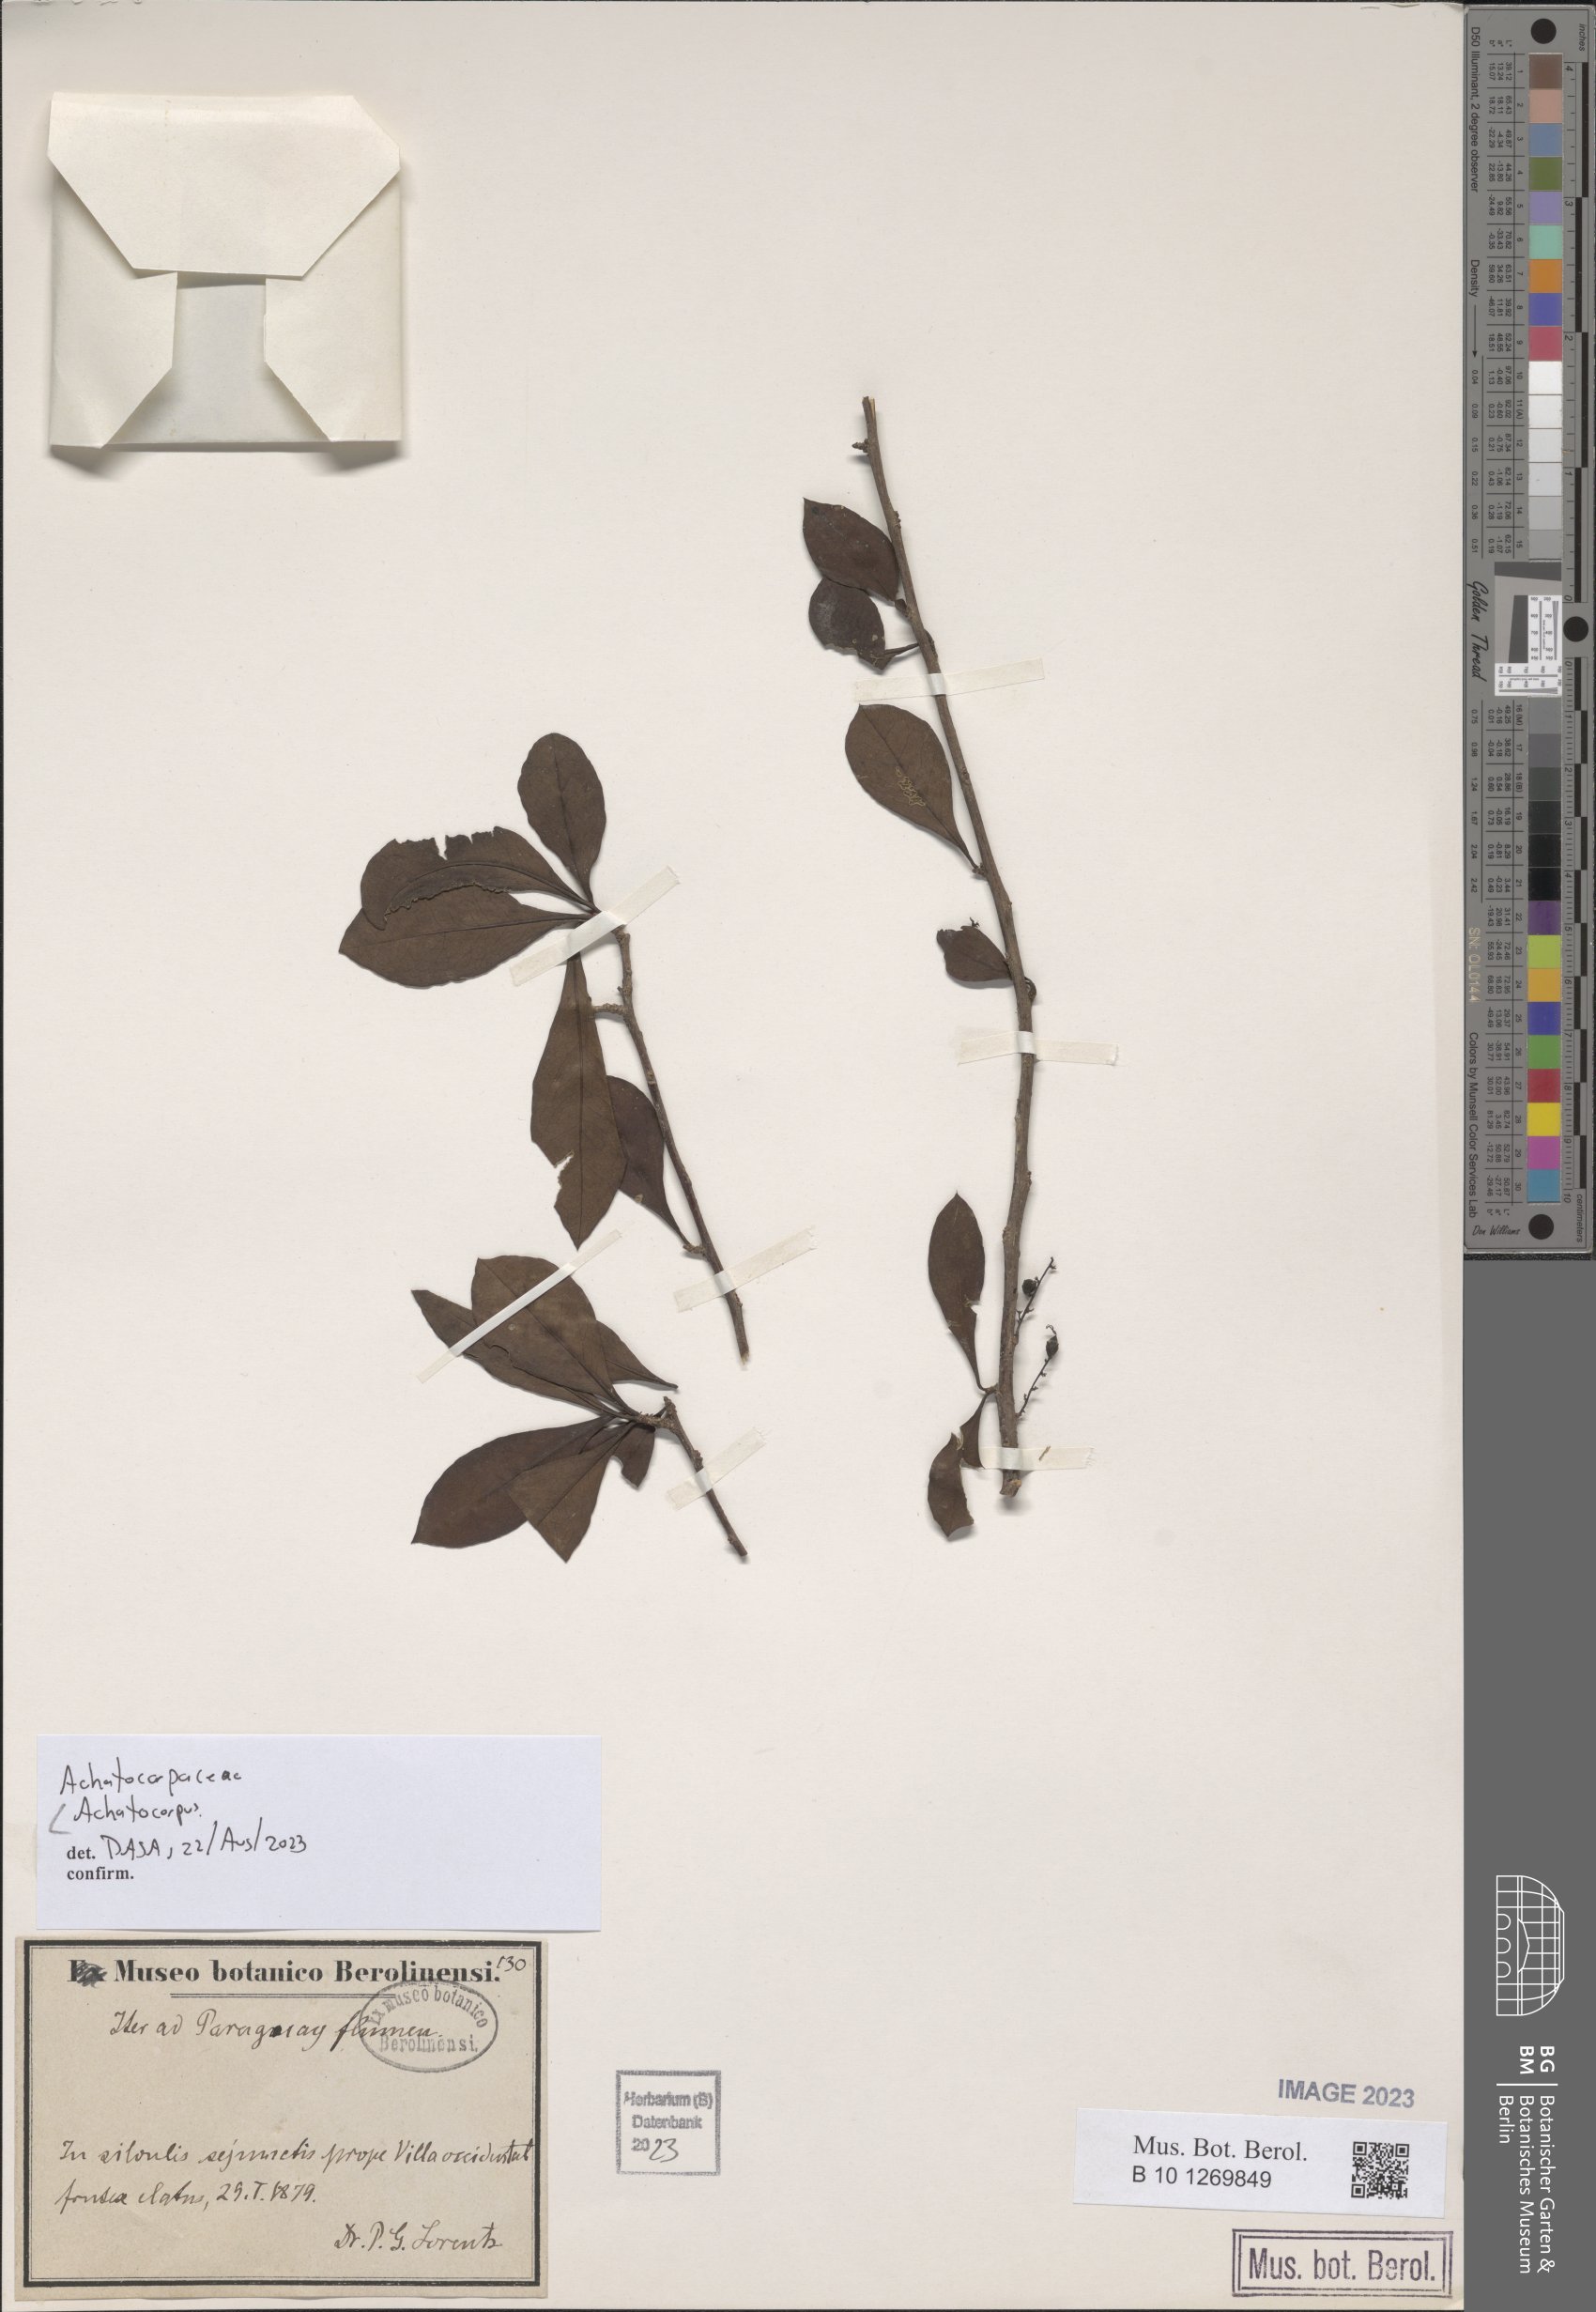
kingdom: Plantae
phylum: Tracheophyta
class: Magnoliopsida
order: Caryophyllales
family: Achatocarpaceae
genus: Achatocarpus
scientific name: Achatocarpus
